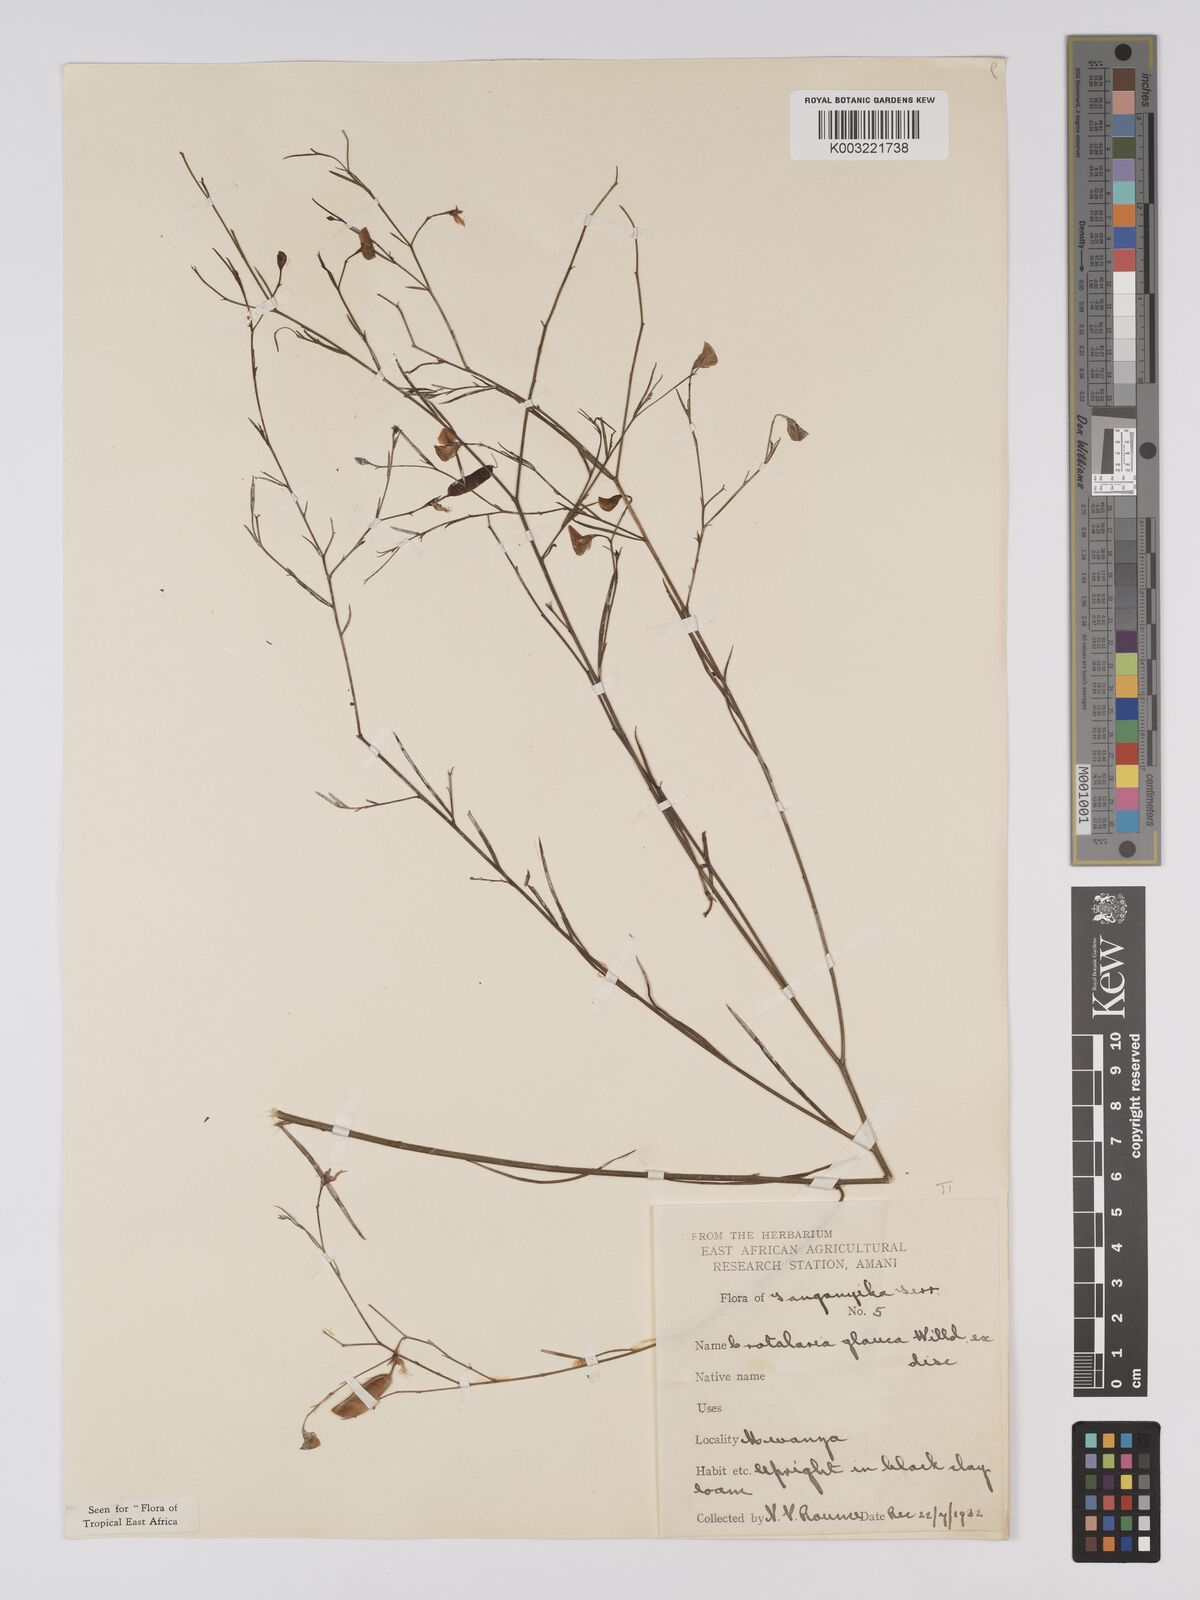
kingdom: Plantae
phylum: Tracheophyta
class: Magnoliopsida
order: Fabales
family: Fabaceae
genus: Crotalaria
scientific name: Crotalaria glauca
